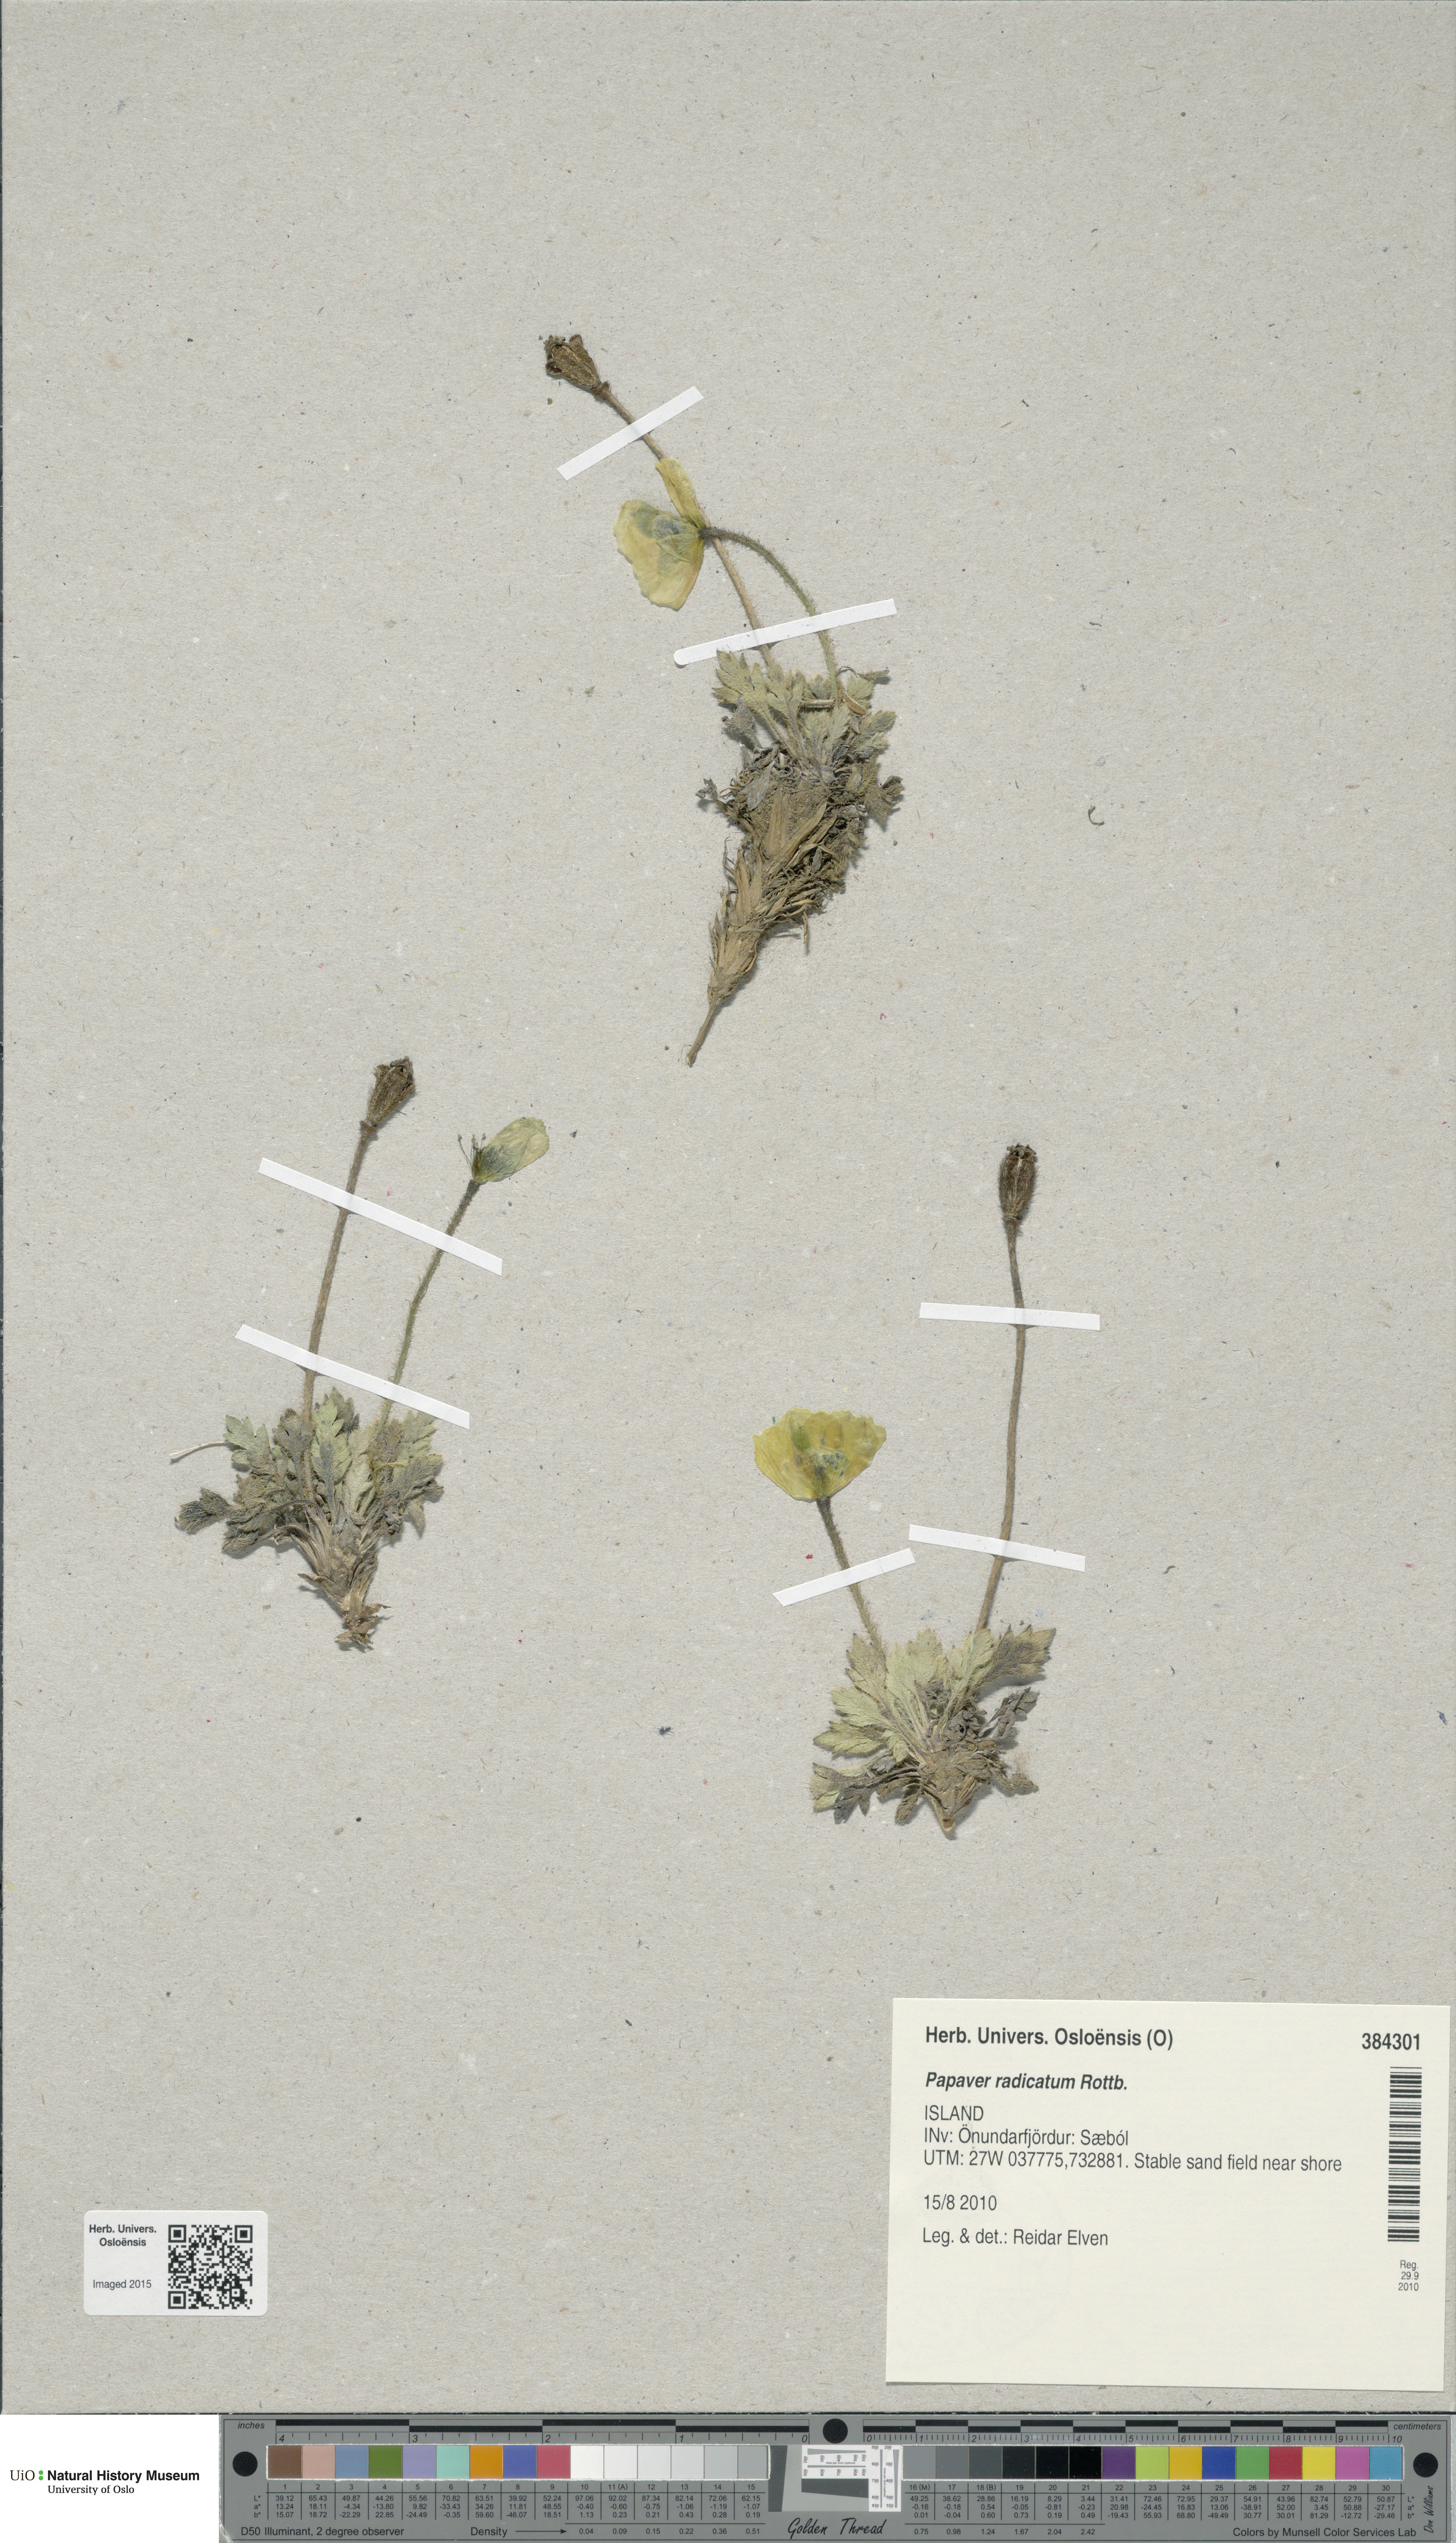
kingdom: Plantae
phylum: Tracheophyta
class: Magnoliopsida
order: Ranunculales
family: Papaveraceae
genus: Papaver
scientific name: Papaver radicatum
